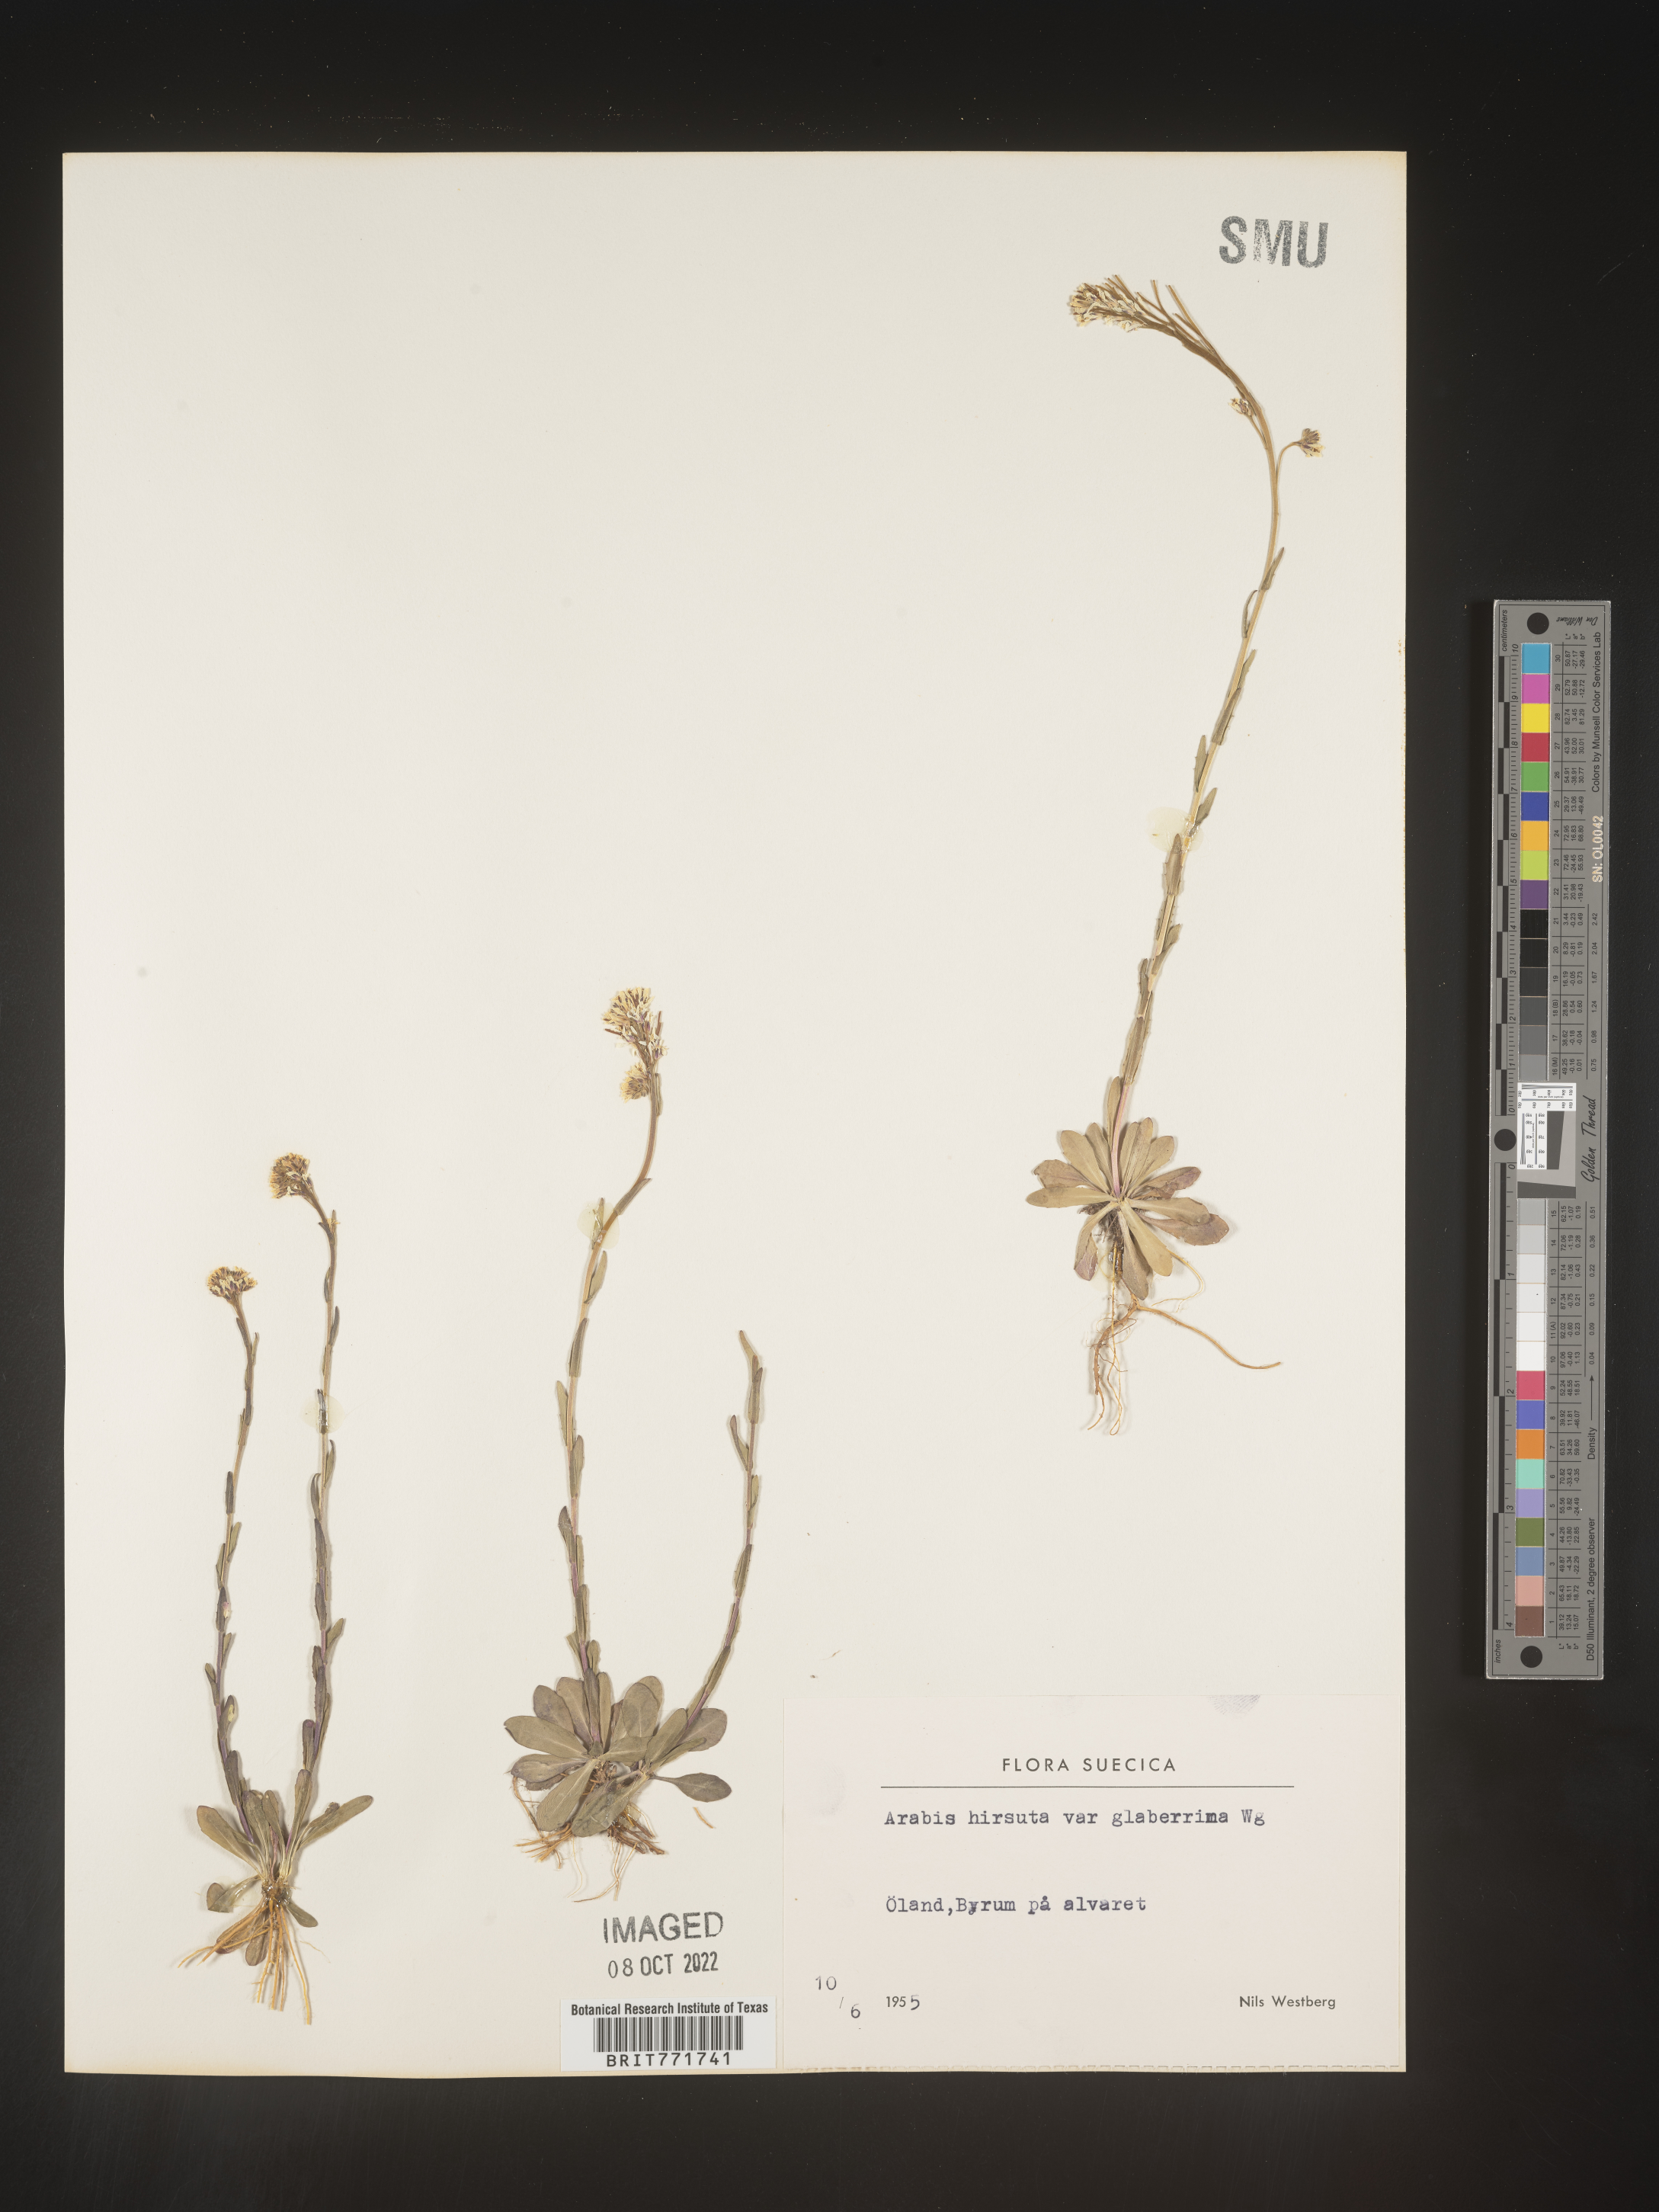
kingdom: Plantae
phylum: Tracheophyta
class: Magnoliopsida
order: Brassicales
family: Brassicaceae
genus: Arabis
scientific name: Arabis
